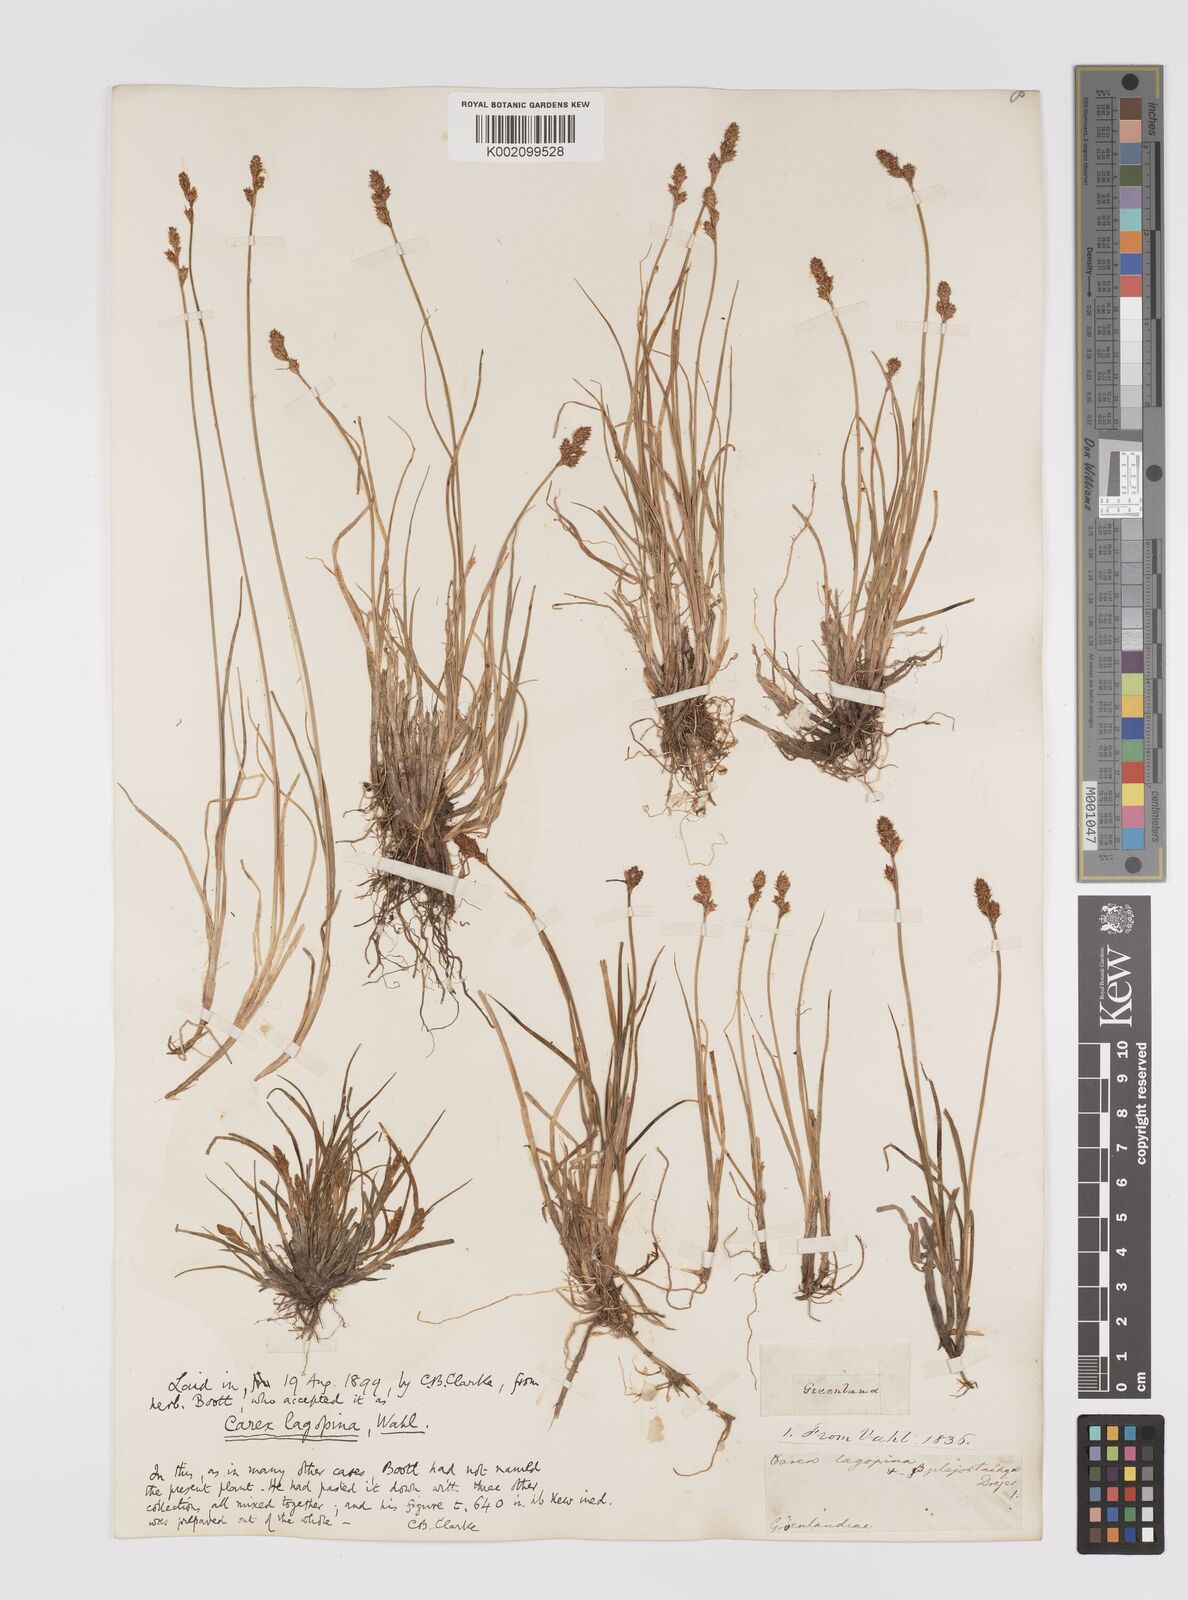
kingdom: Plantae
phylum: Tracheophyta
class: Liliopsida
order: Poales
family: Cyperaceae
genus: Carex
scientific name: Carex lachenalii
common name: Hare's-foot sedge
